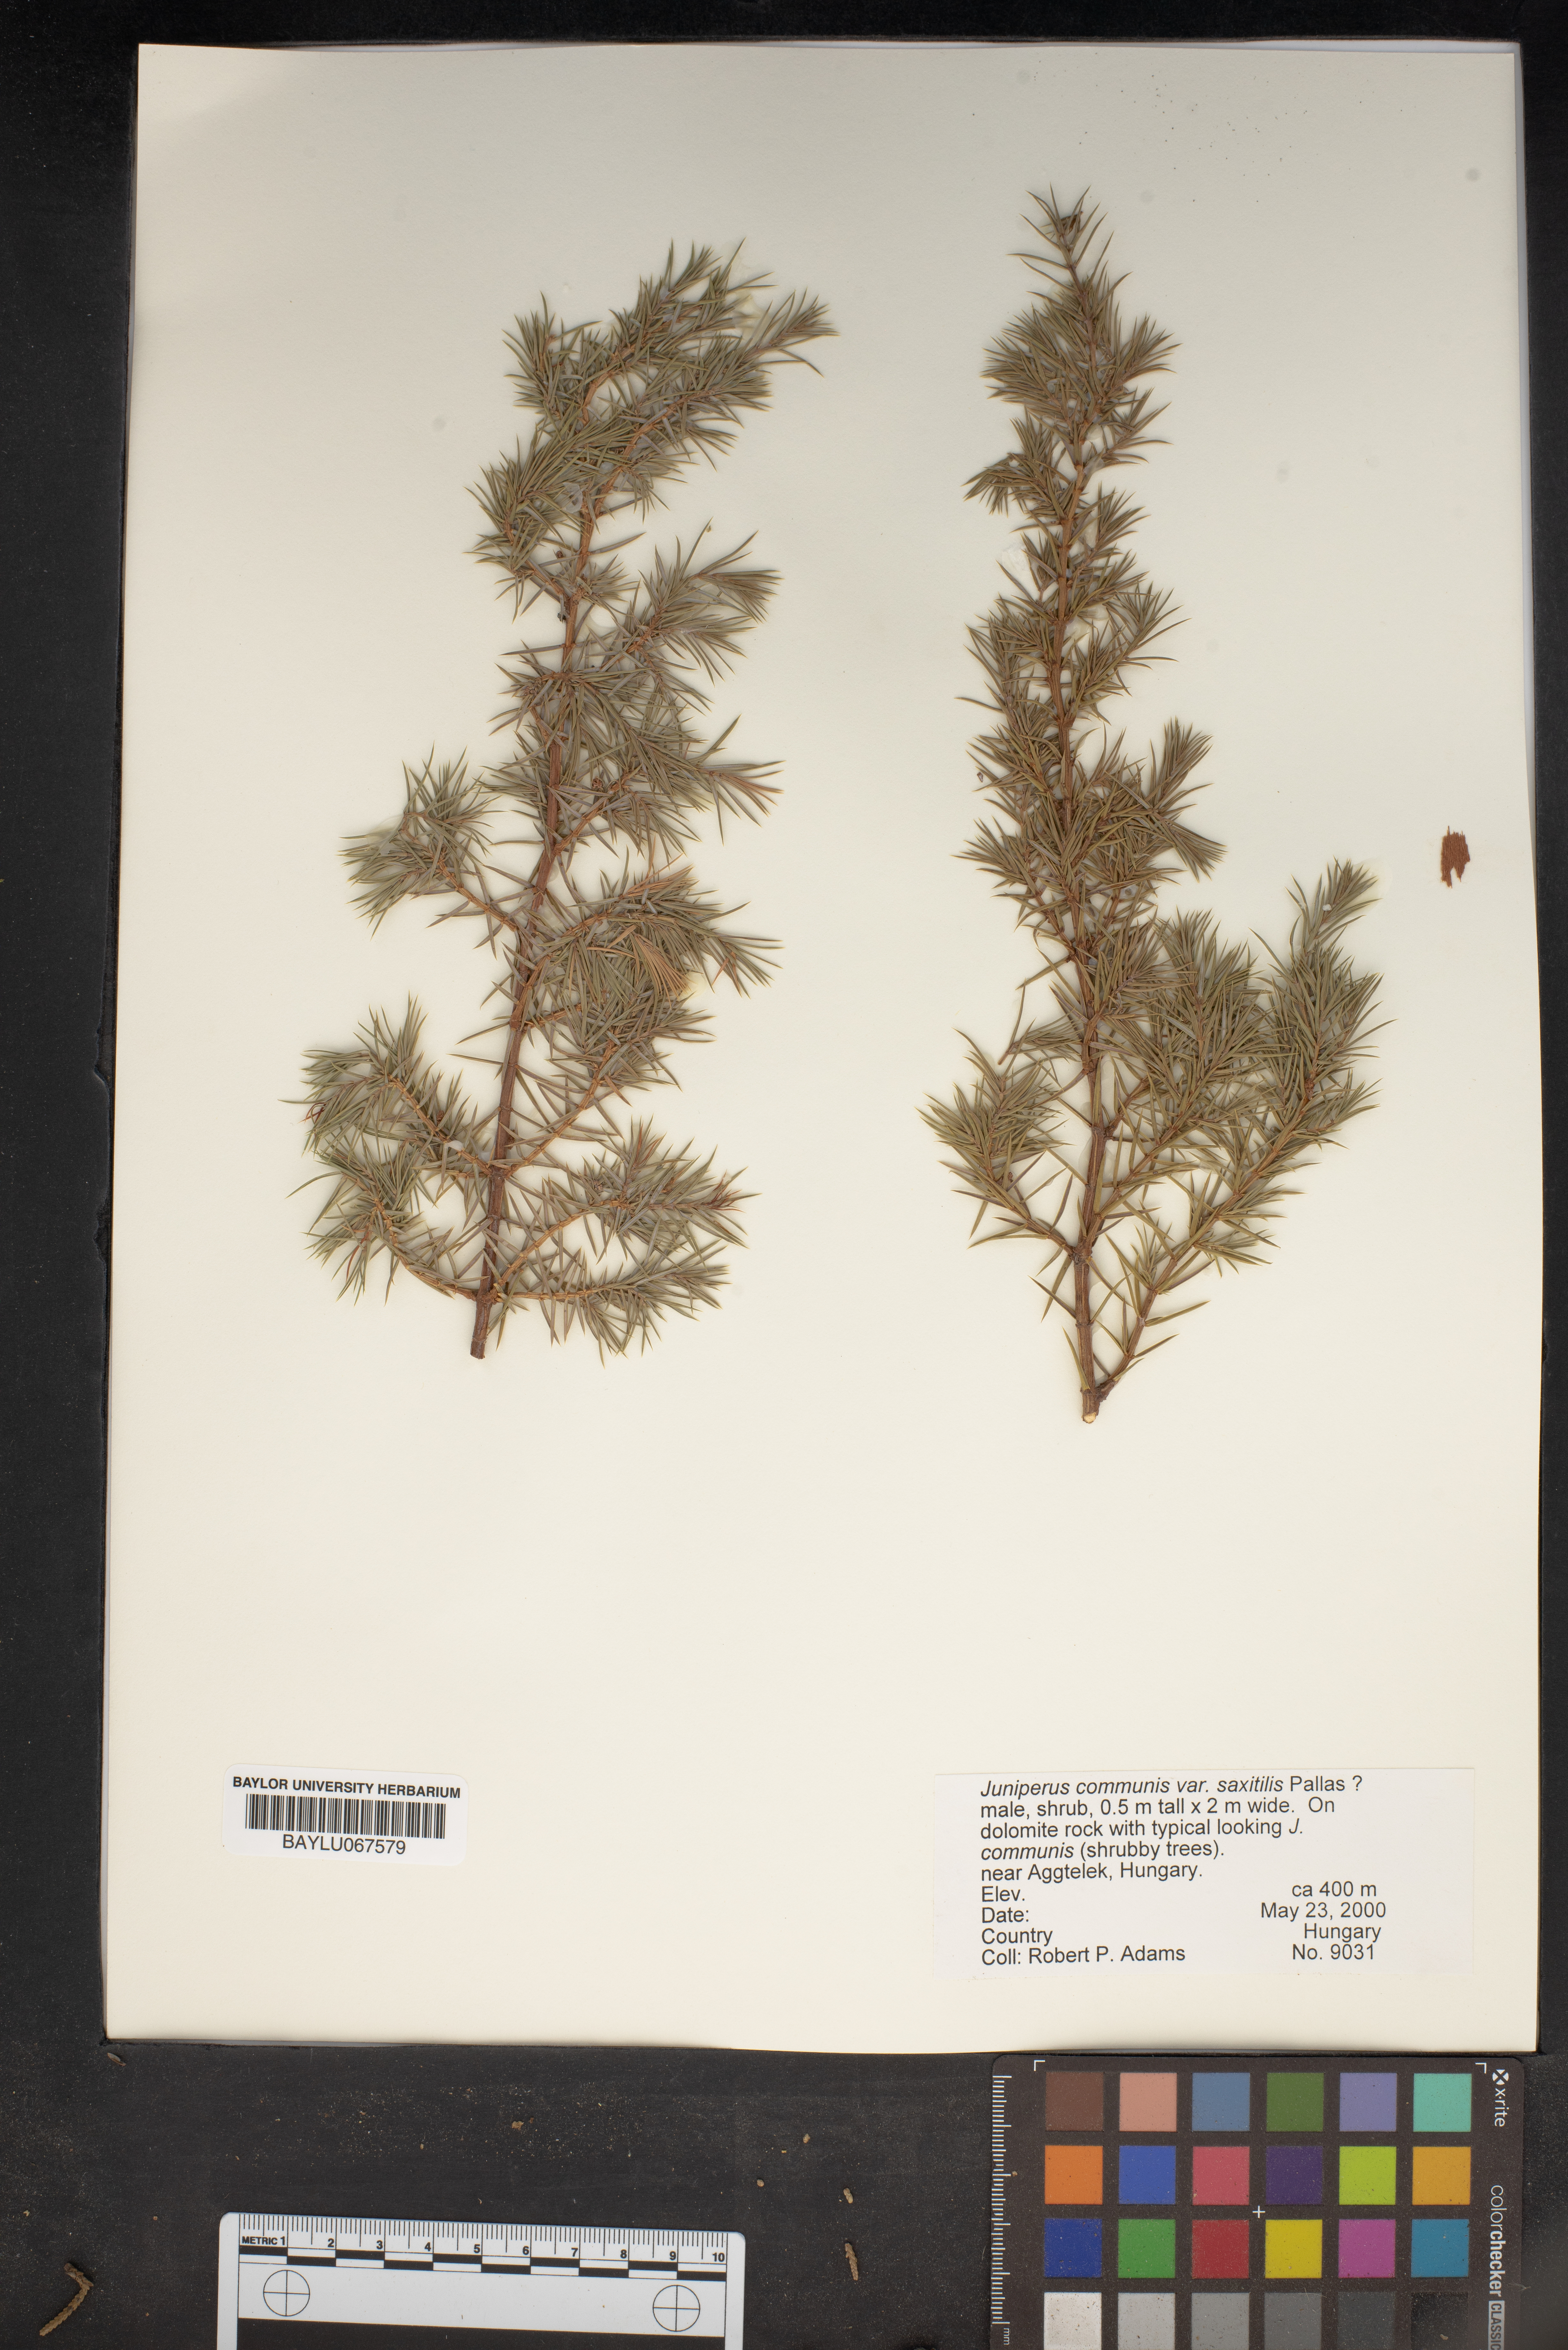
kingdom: Plantae
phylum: Tracheophyta
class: Pinopsida
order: Pinales
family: Cupressaceae
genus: Juniperus
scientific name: Juniperus communis
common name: Common juniper
